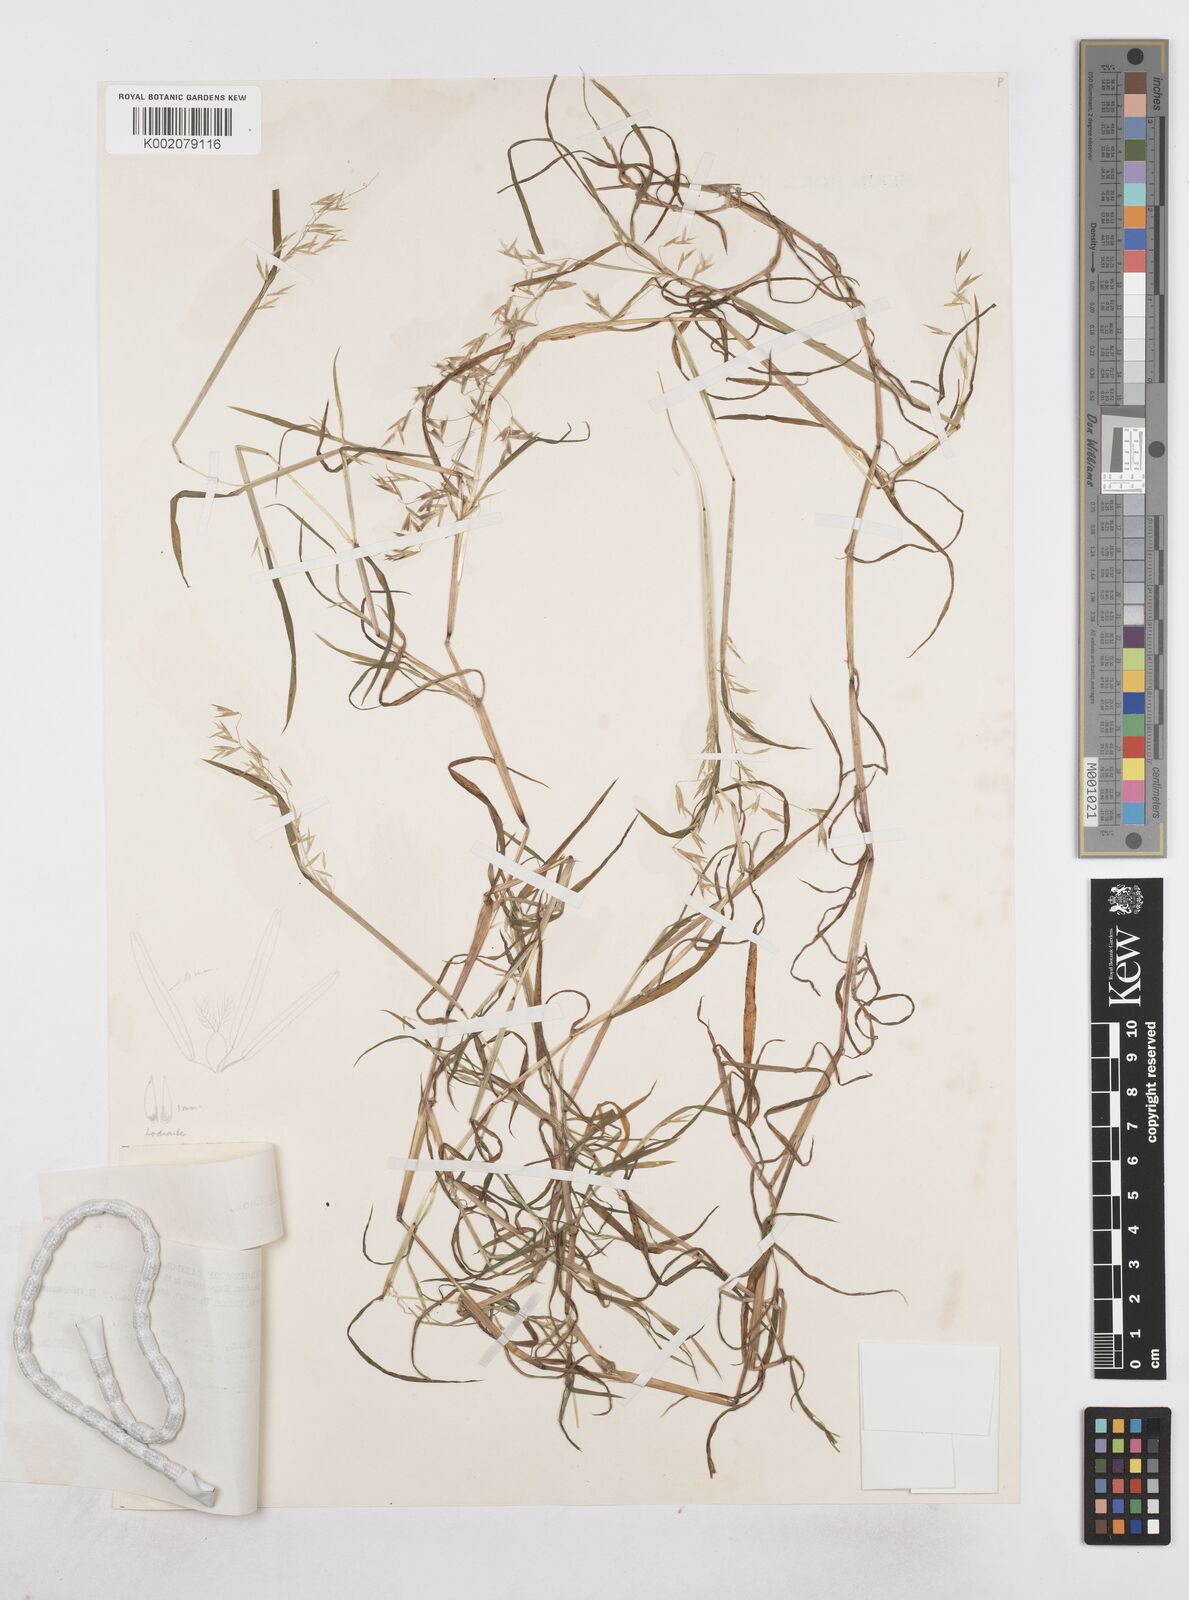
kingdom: Plantae
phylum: Tracheophyta
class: Liliopsida
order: Poales
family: Poaceae
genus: Poa
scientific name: Poa hitchcockiana
